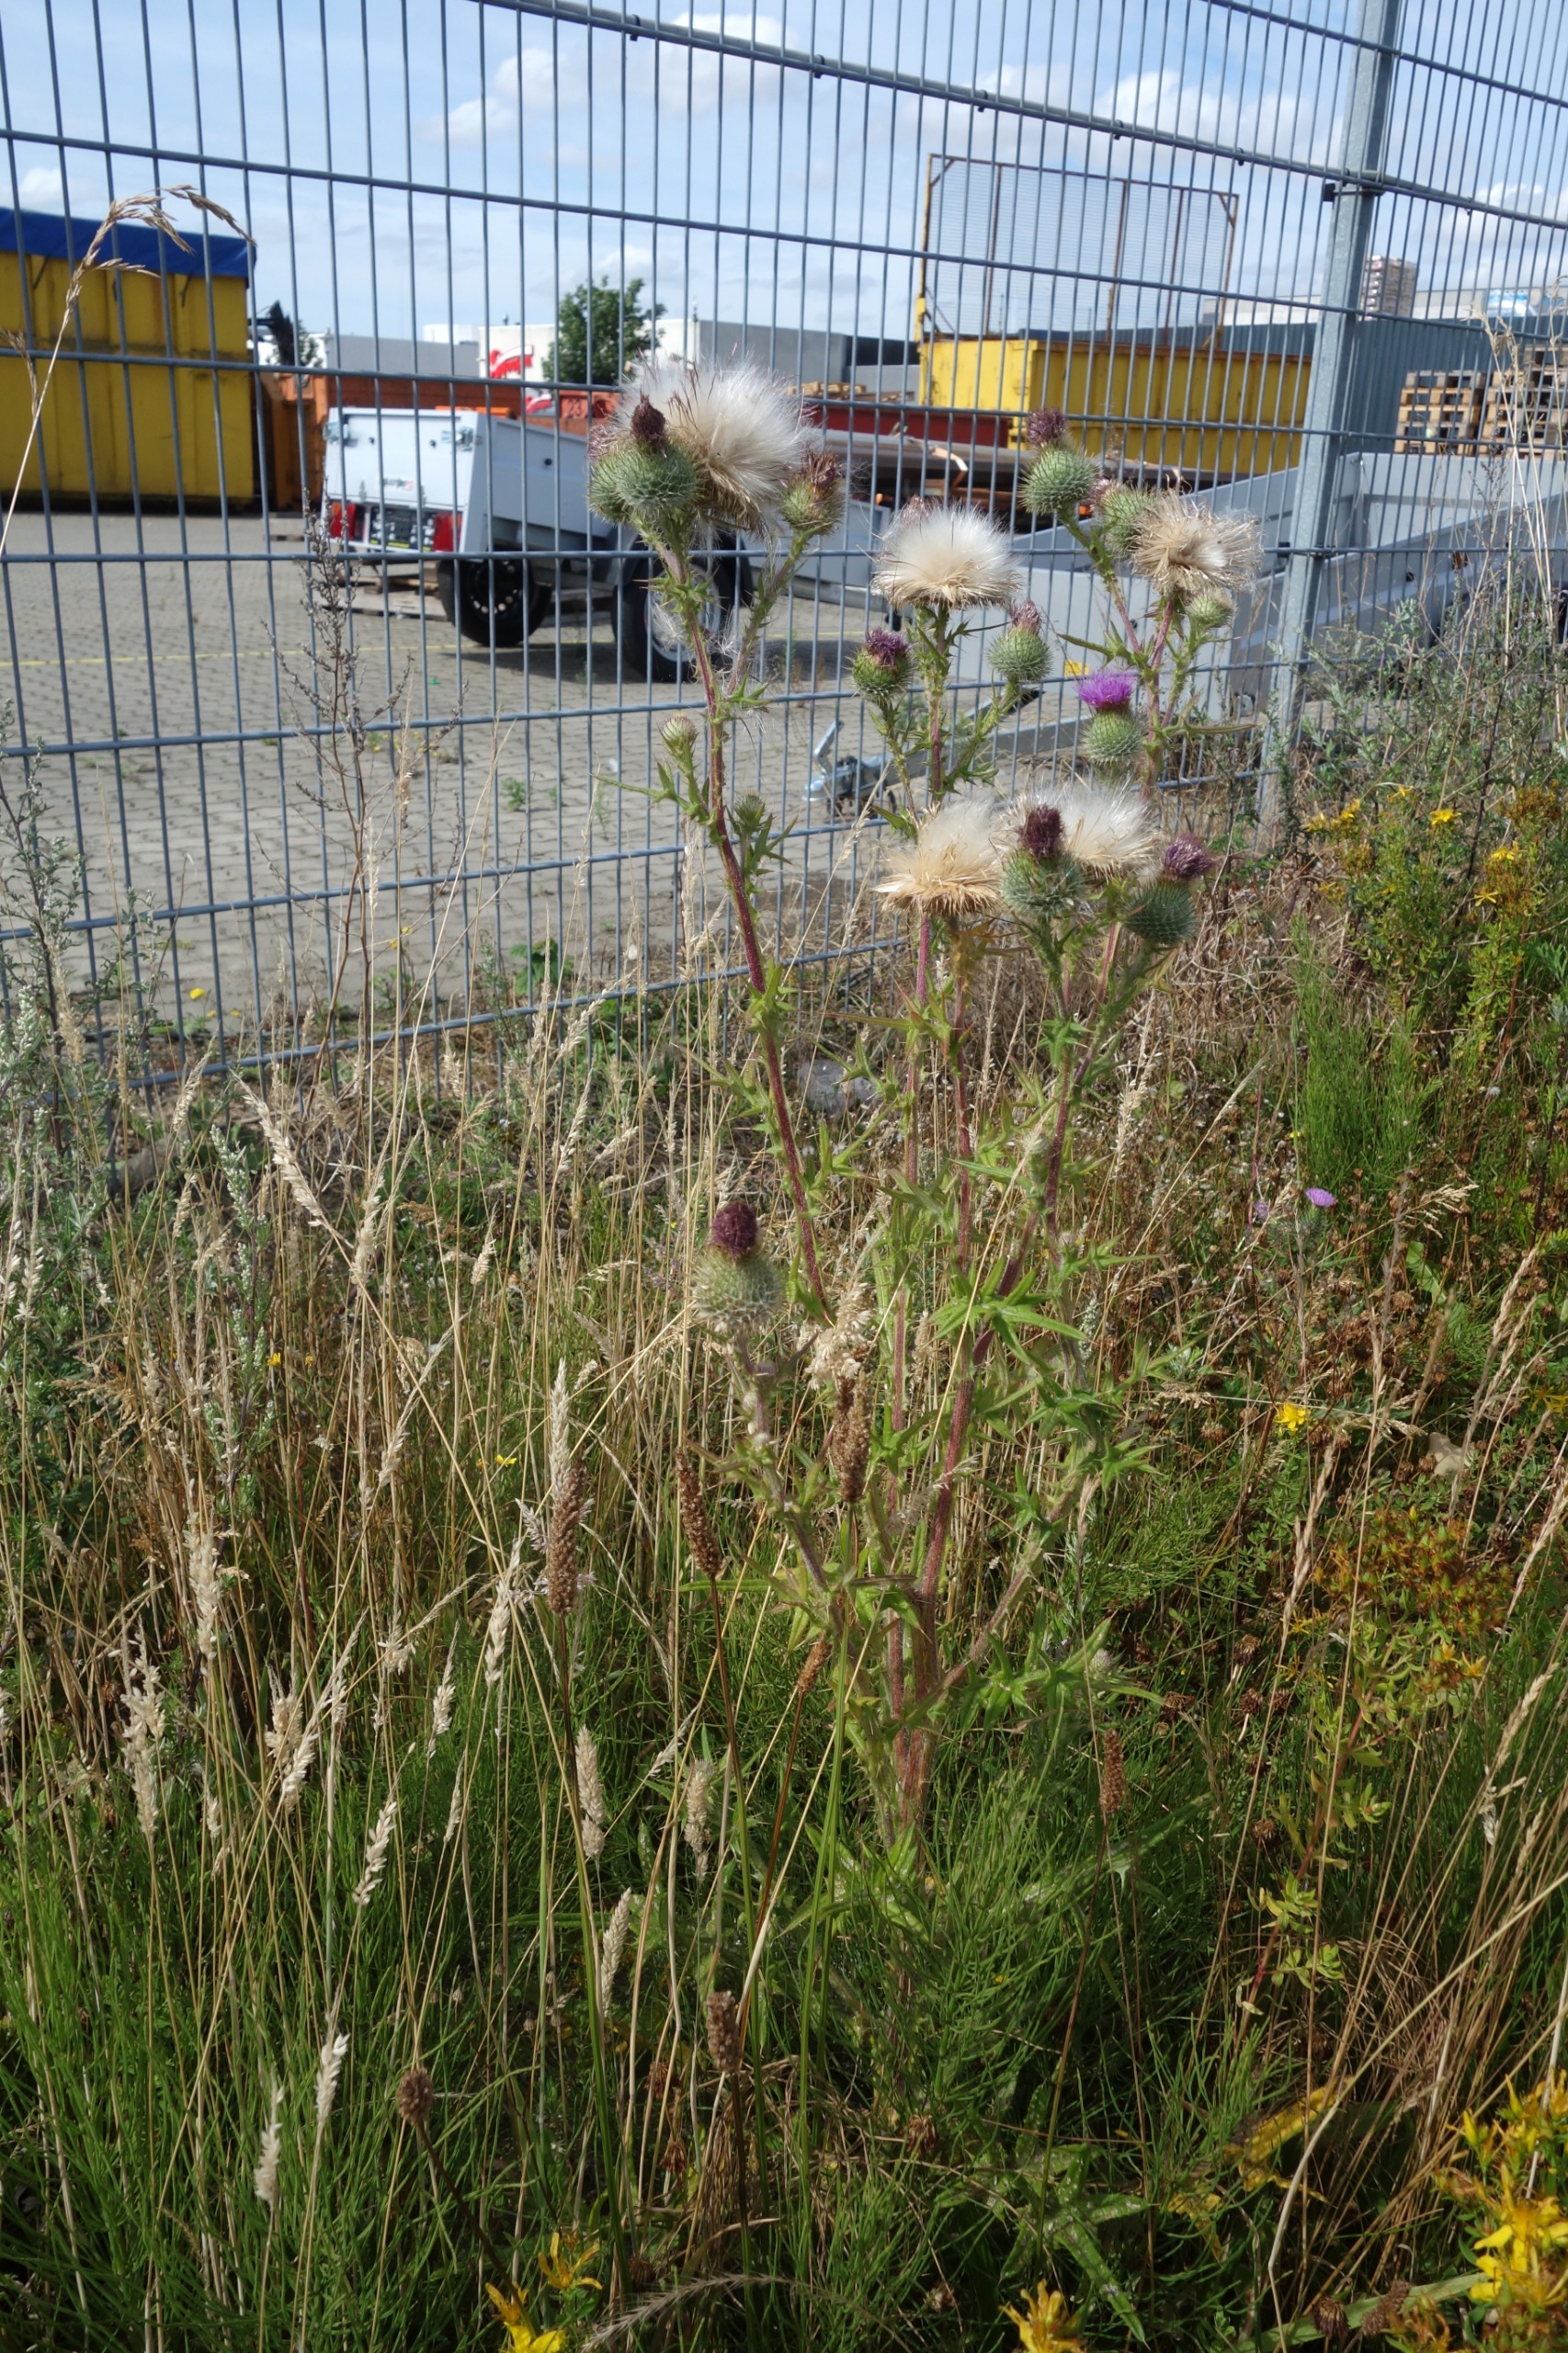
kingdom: Plantae
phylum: Tracheophyta
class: Magnoliopsida
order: Asterales
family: Asteraceae
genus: Cirsium
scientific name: Cirsium vulgare
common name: Horse-tidsel
